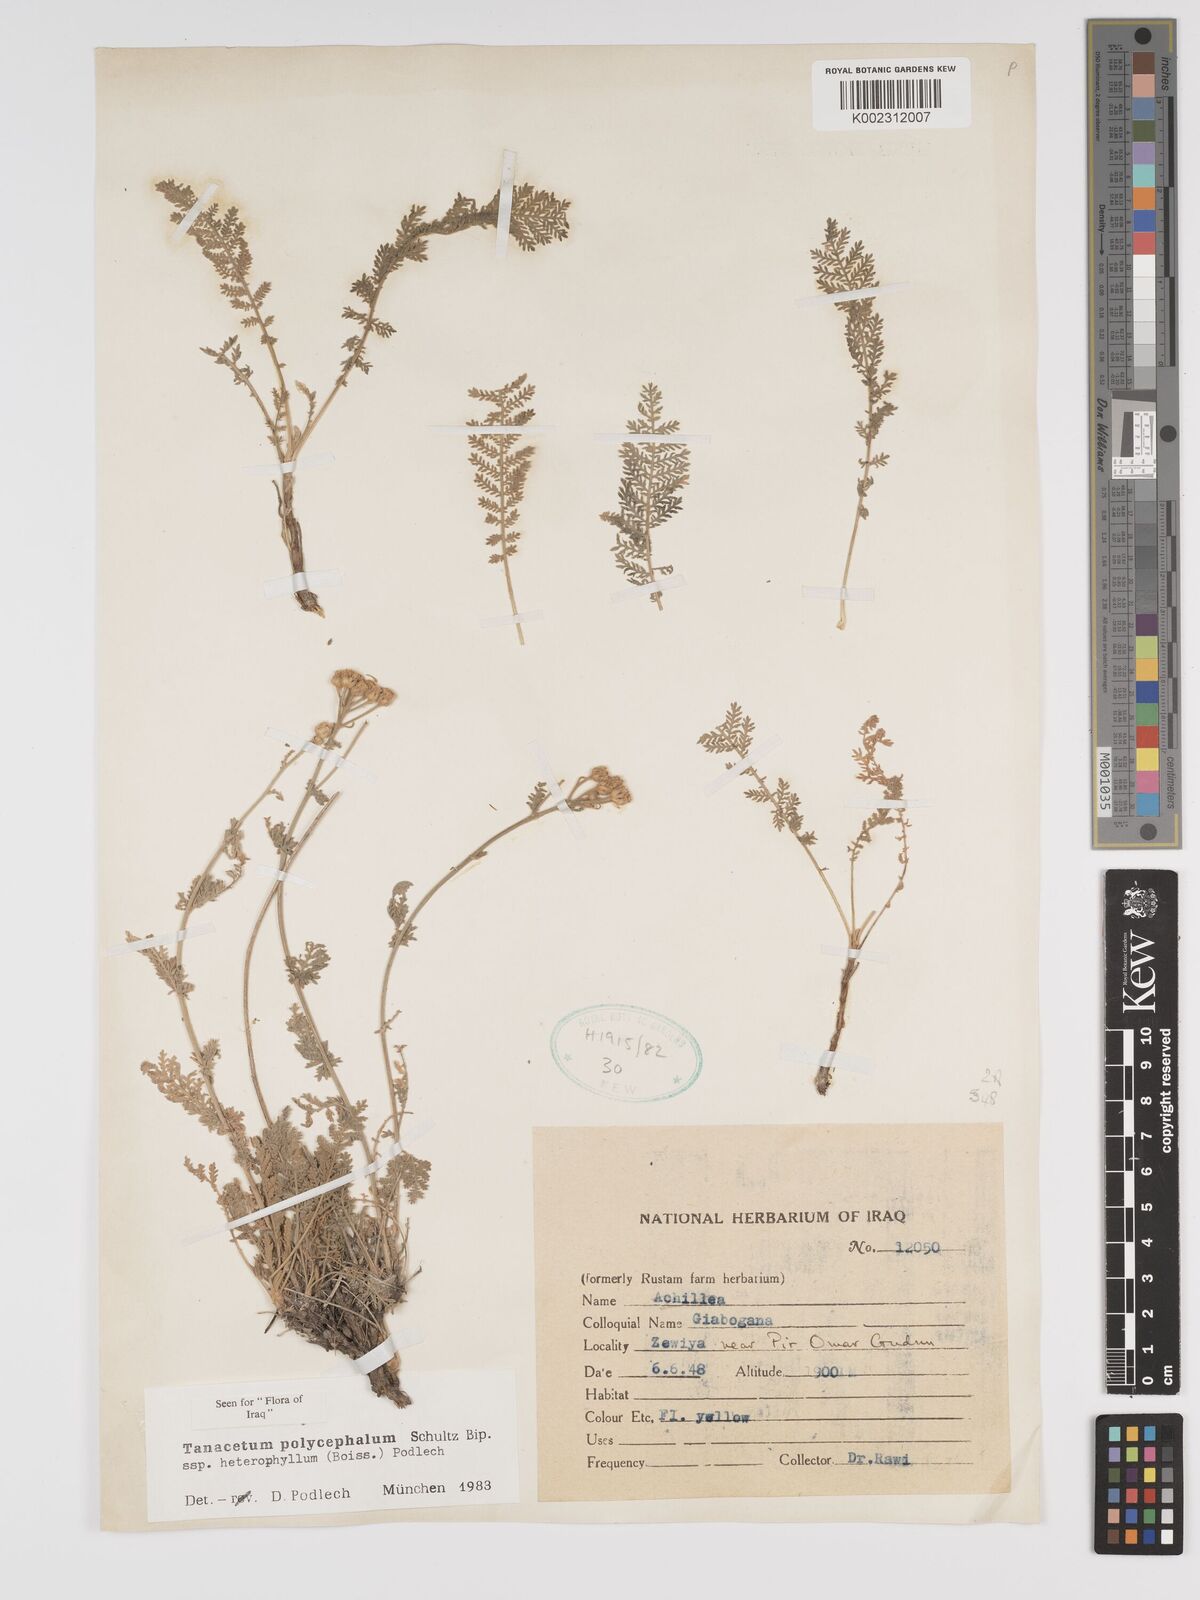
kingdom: Plantae
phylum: Tracheophyta
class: Magnoliopsida
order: Asterales
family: Asteraceae
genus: Tanacetum
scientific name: Tanacetum polycephalum
